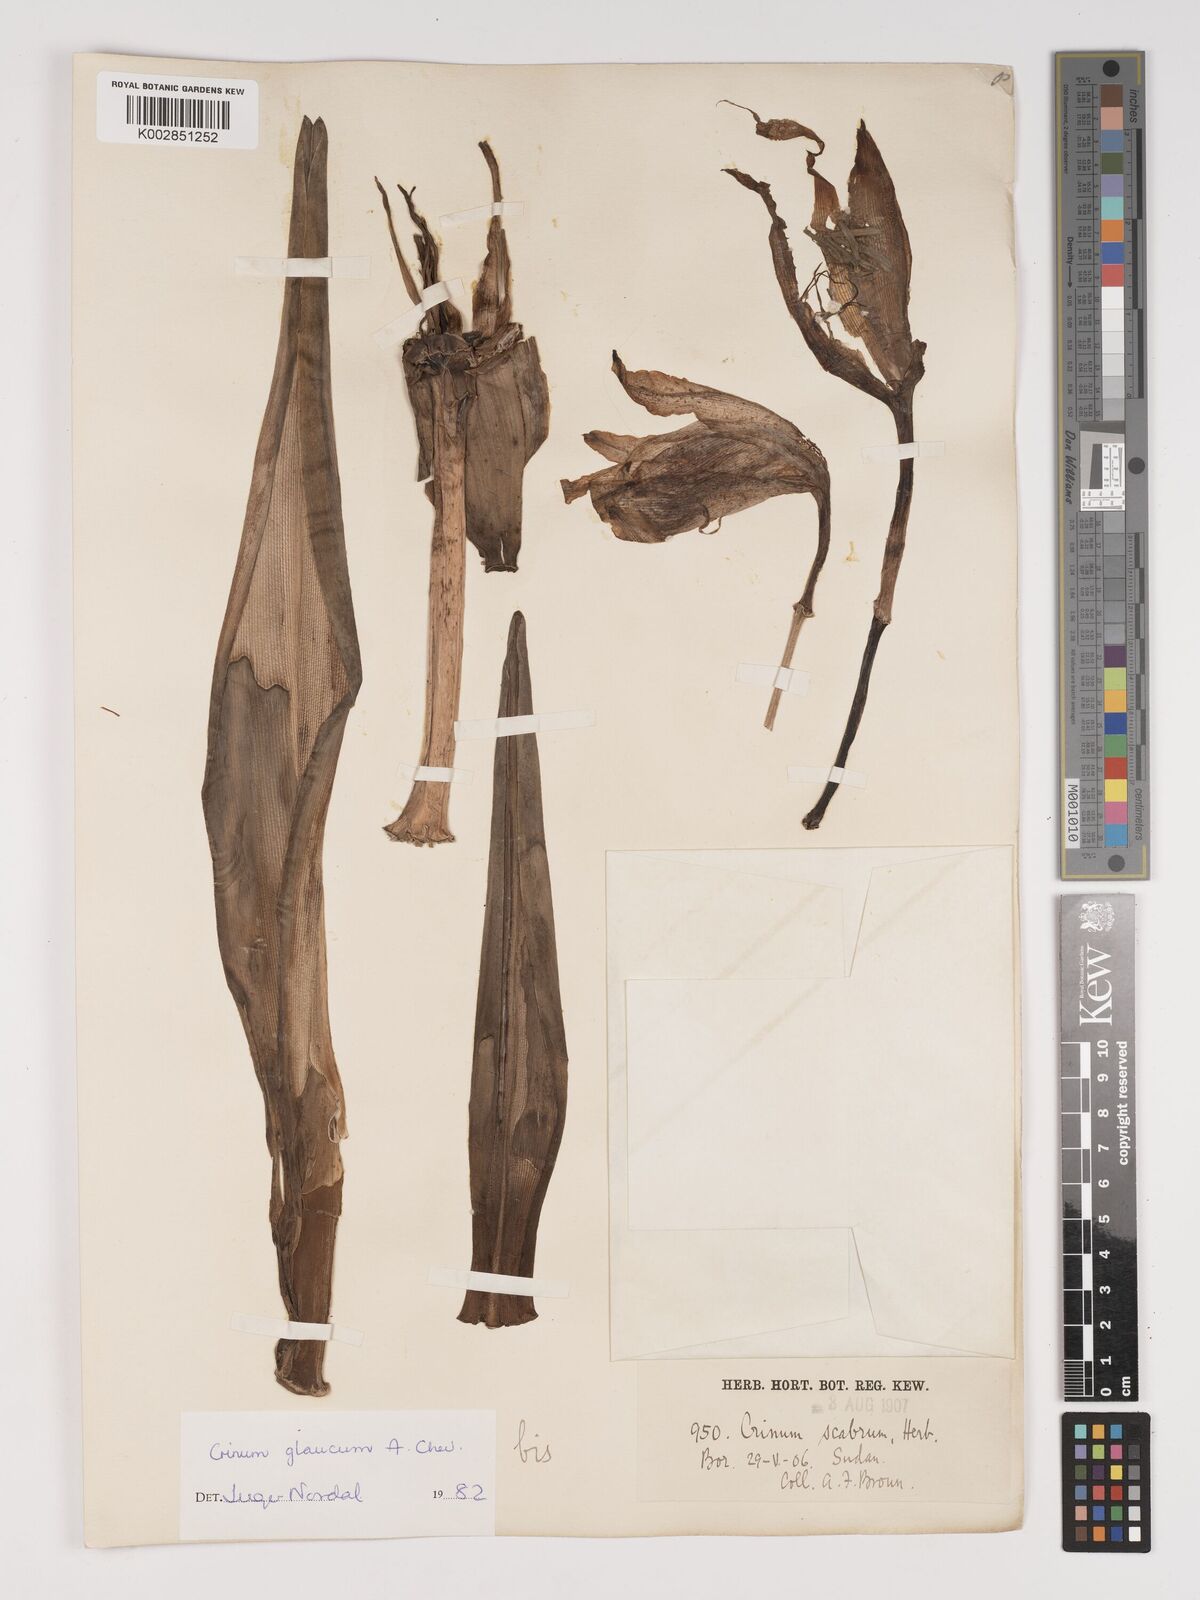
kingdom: Plantae
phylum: Tracheophyta
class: Liliopsida
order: Asparagales
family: Amaryllidaceae
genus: Crinum
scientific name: Crinum glaucum
